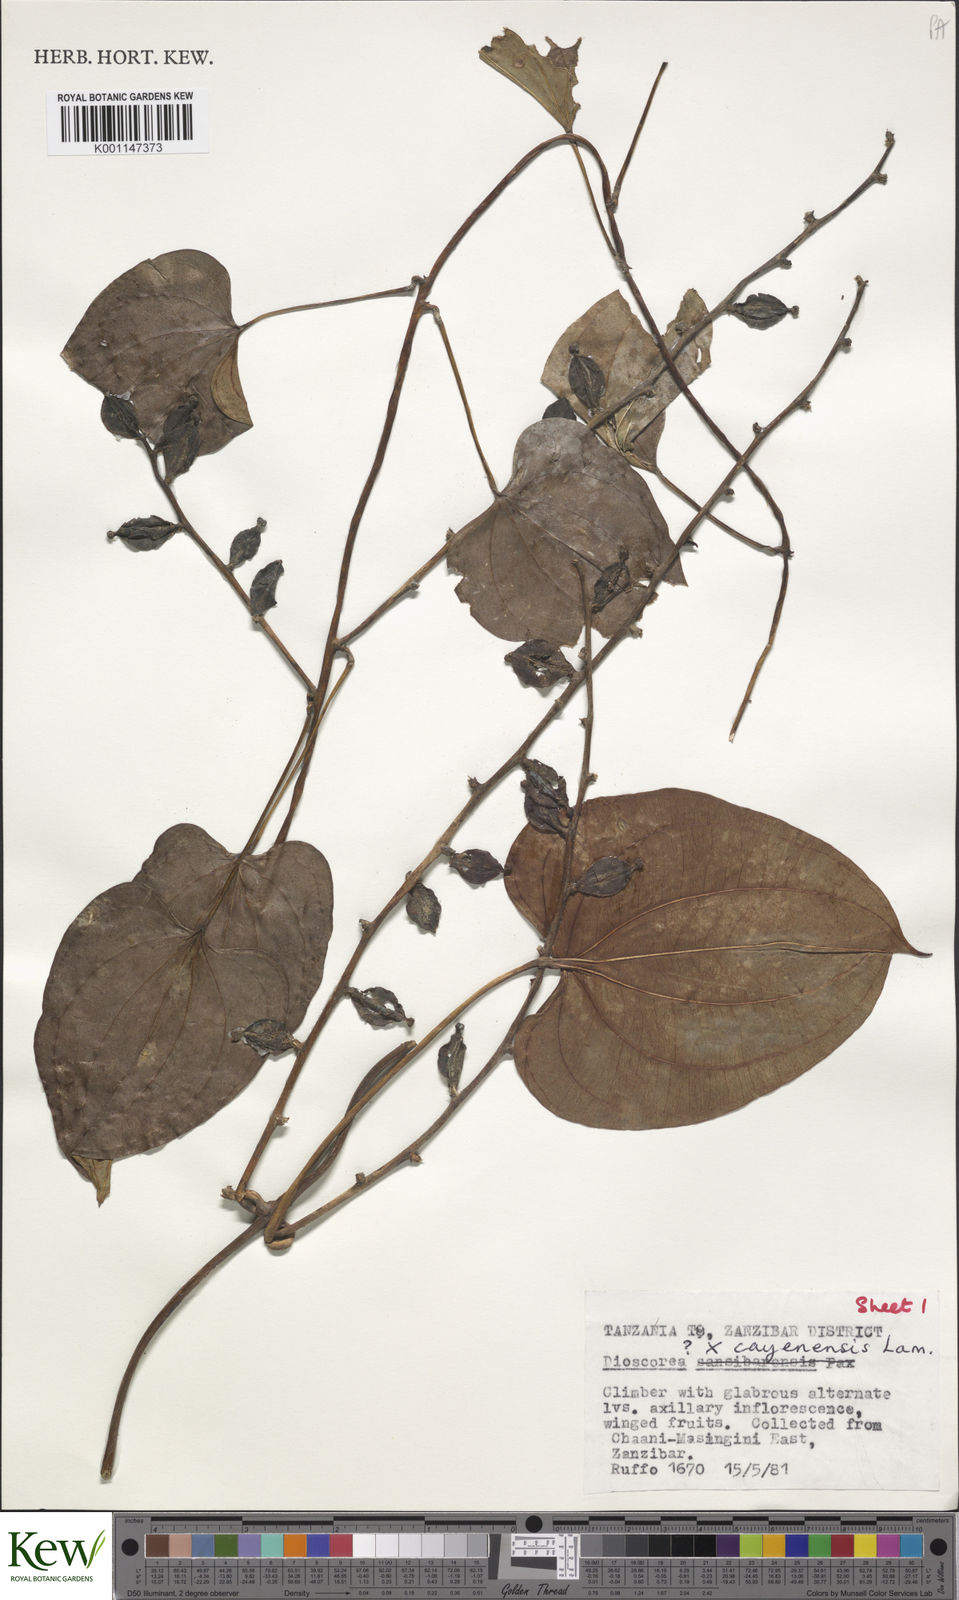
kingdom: Plantae
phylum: Tracheophyta
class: Liliopsida
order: Dioscoreales
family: Dioscoreaceae
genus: Dioscorea
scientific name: Dioscorea cayenensis
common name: Attoto yam
